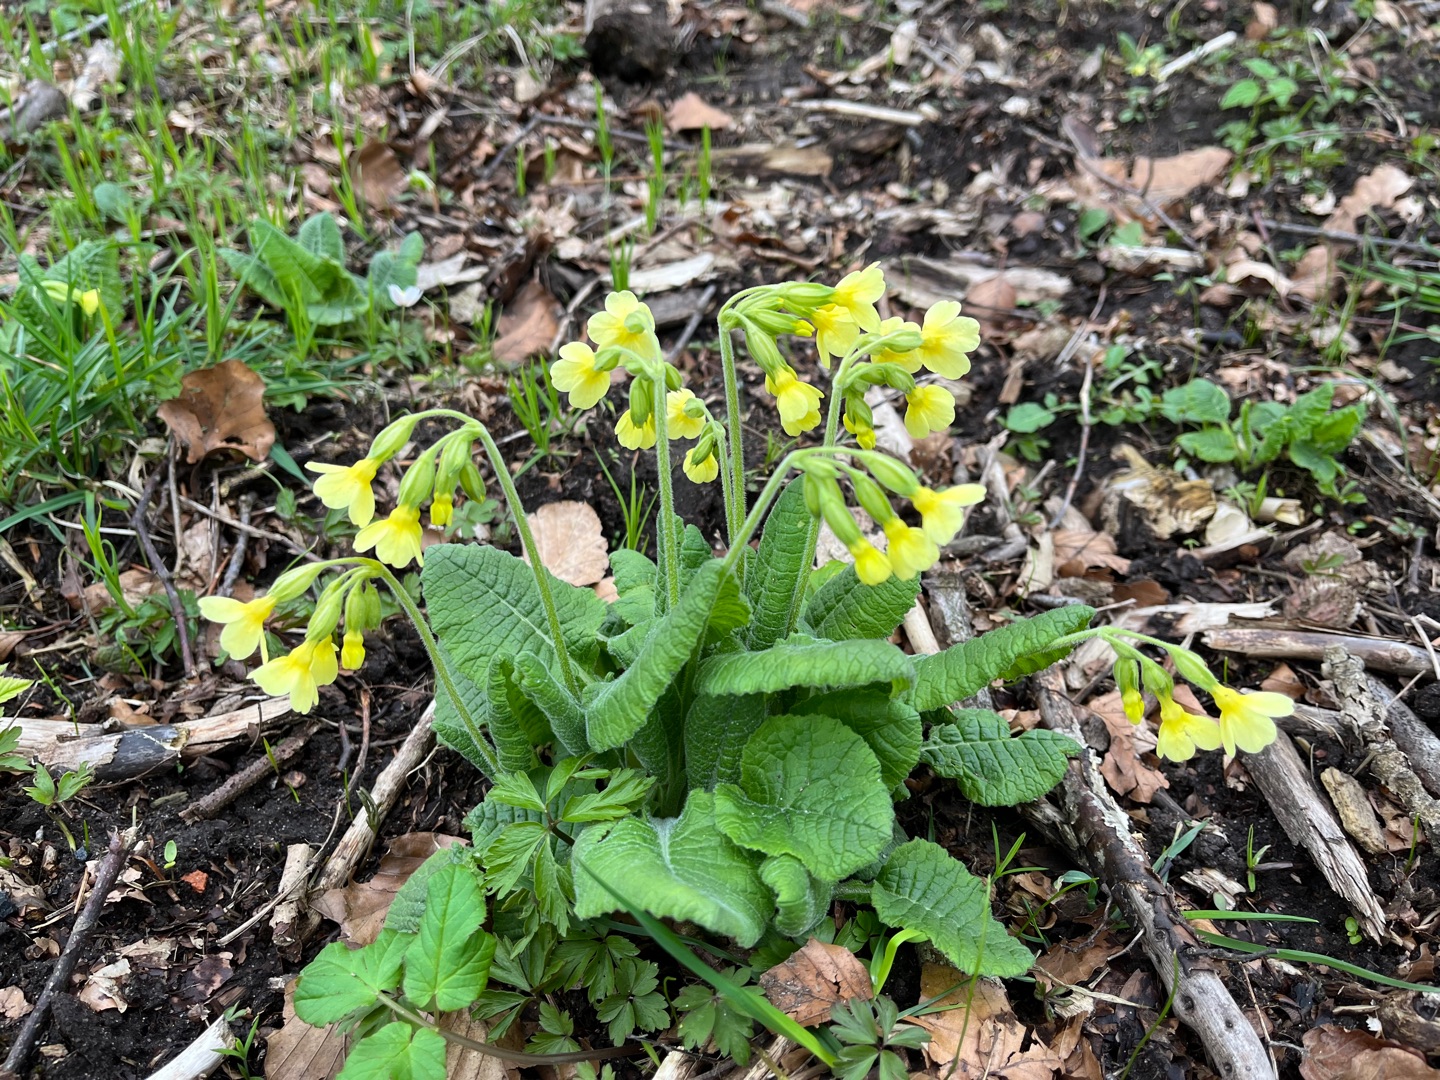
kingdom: Plantae
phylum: Tracheophyta
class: Magnoliopsida
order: Ericales
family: Primulaceae
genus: Primula
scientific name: Primula elatior
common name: Fladkravet kodriver
